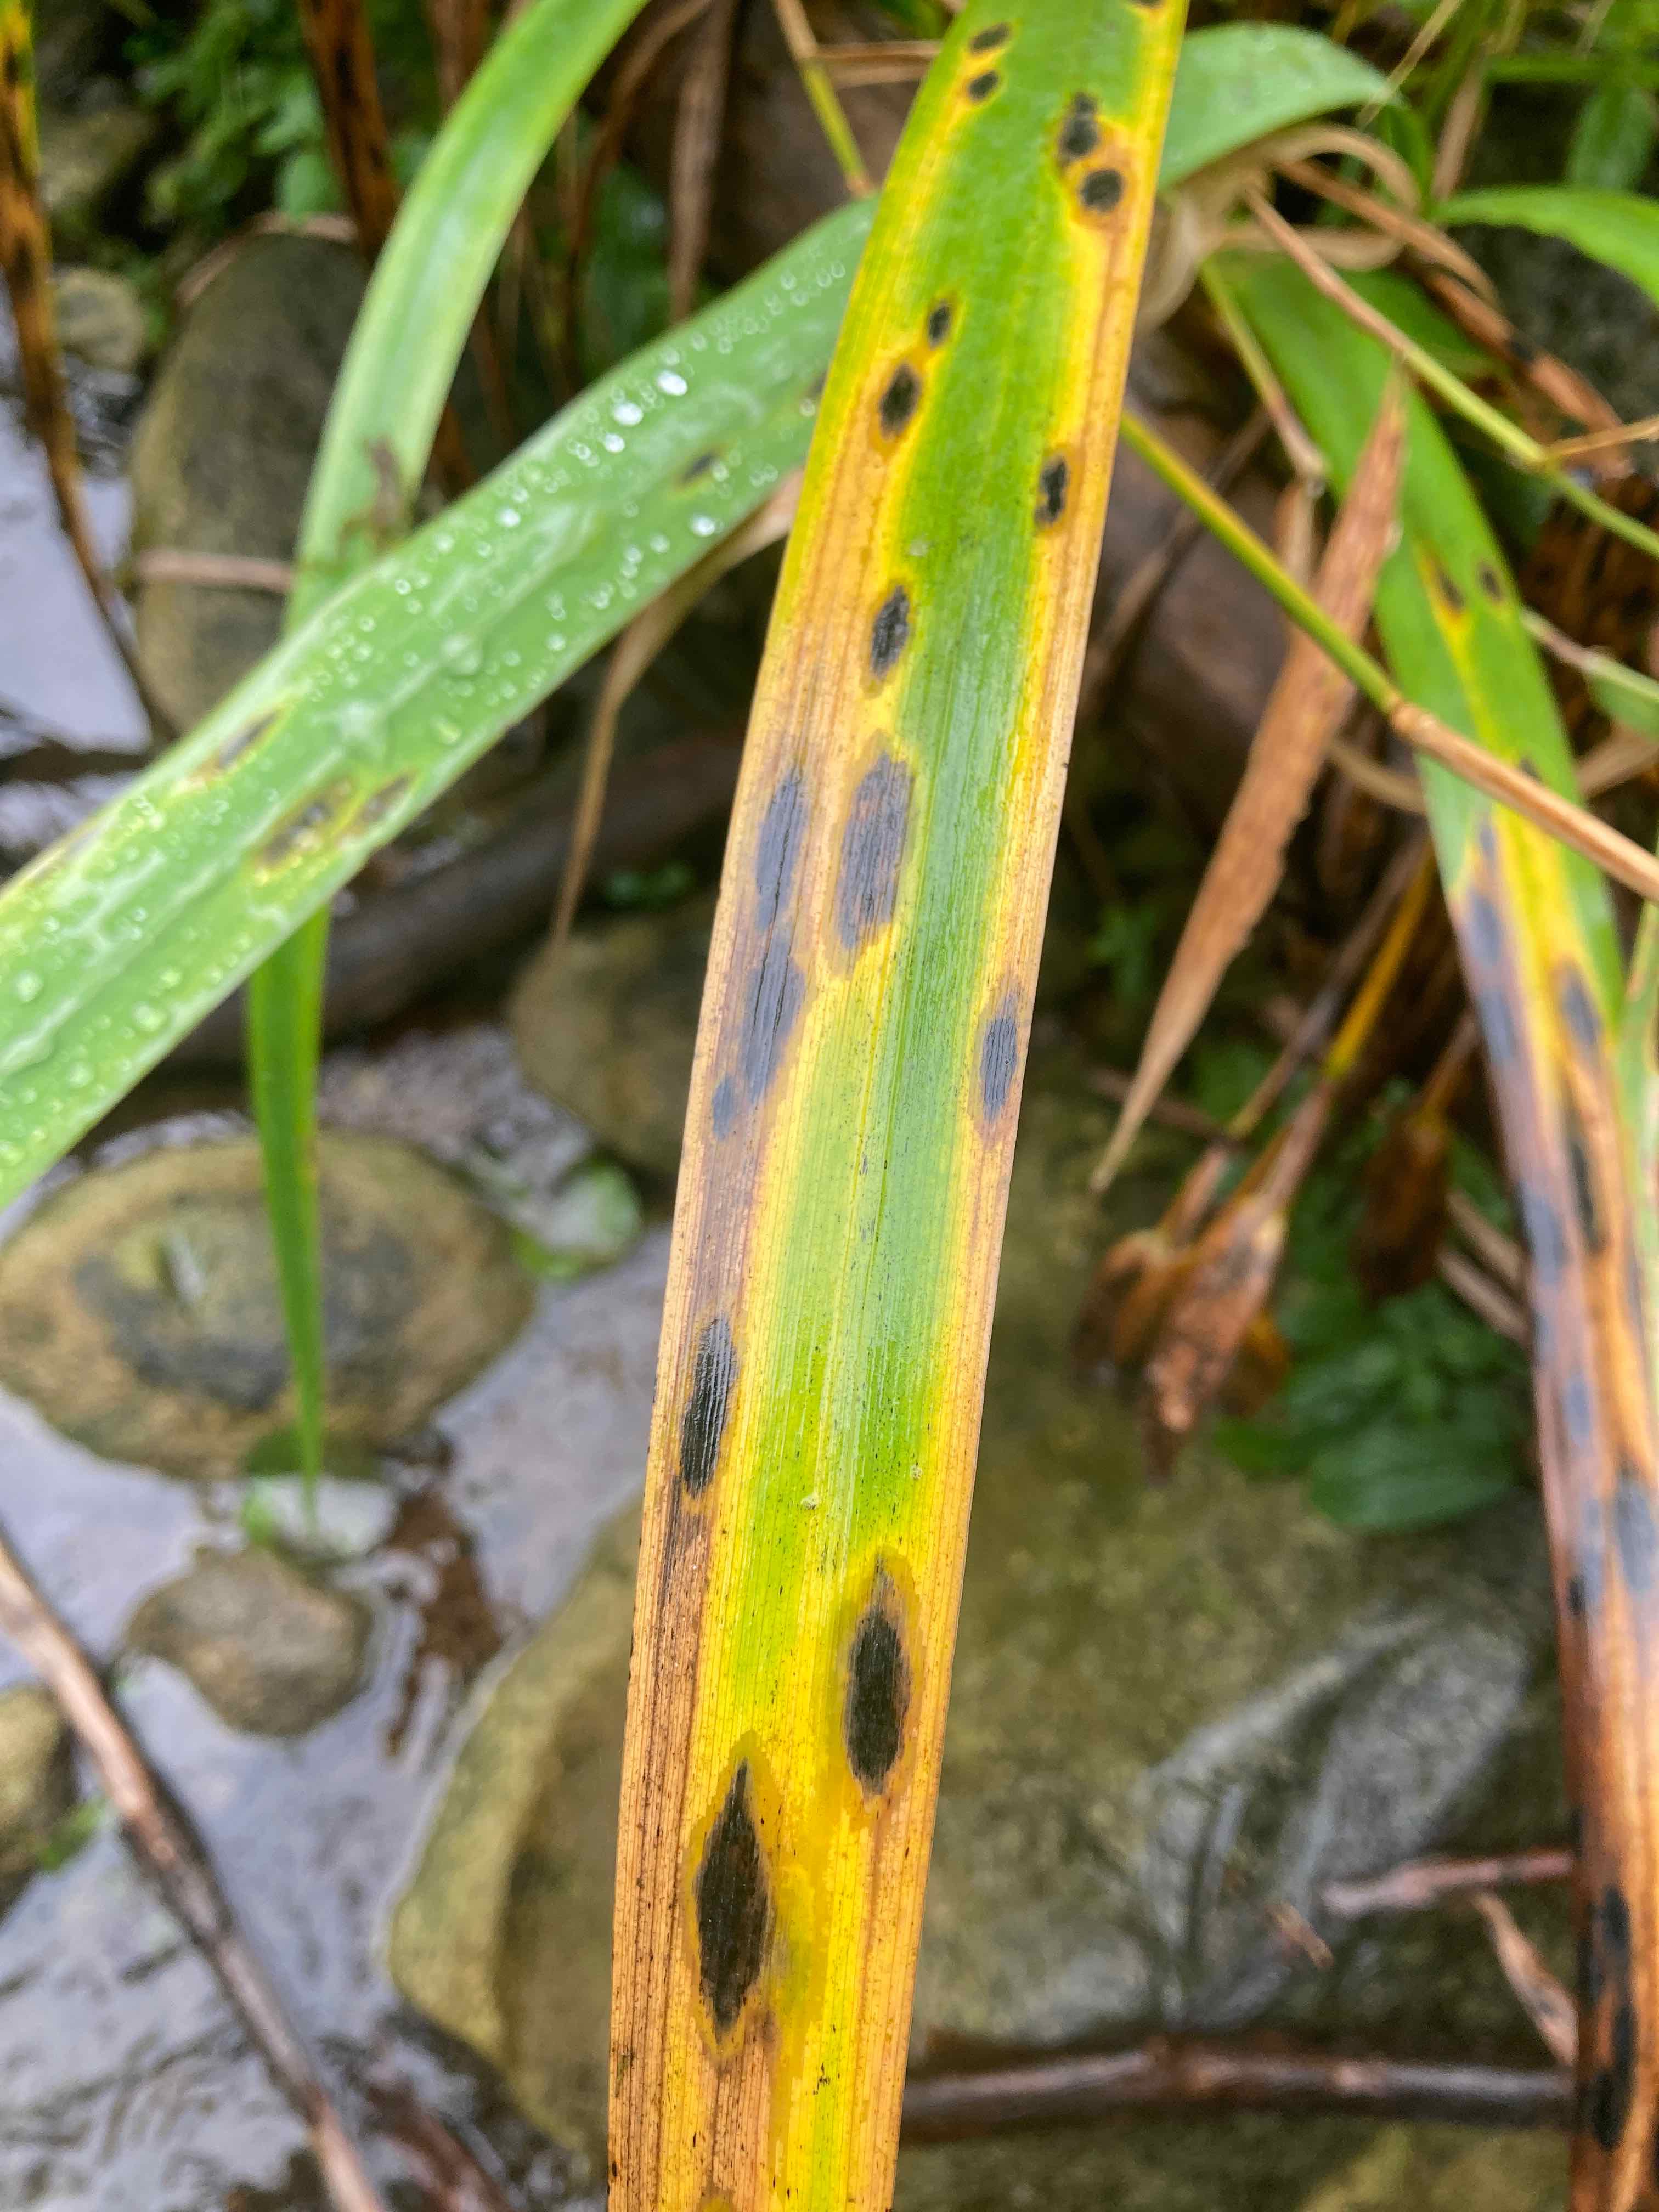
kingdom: Fungi
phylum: Ascomycota
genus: Ectostroma
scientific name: Ectostroma iridis
